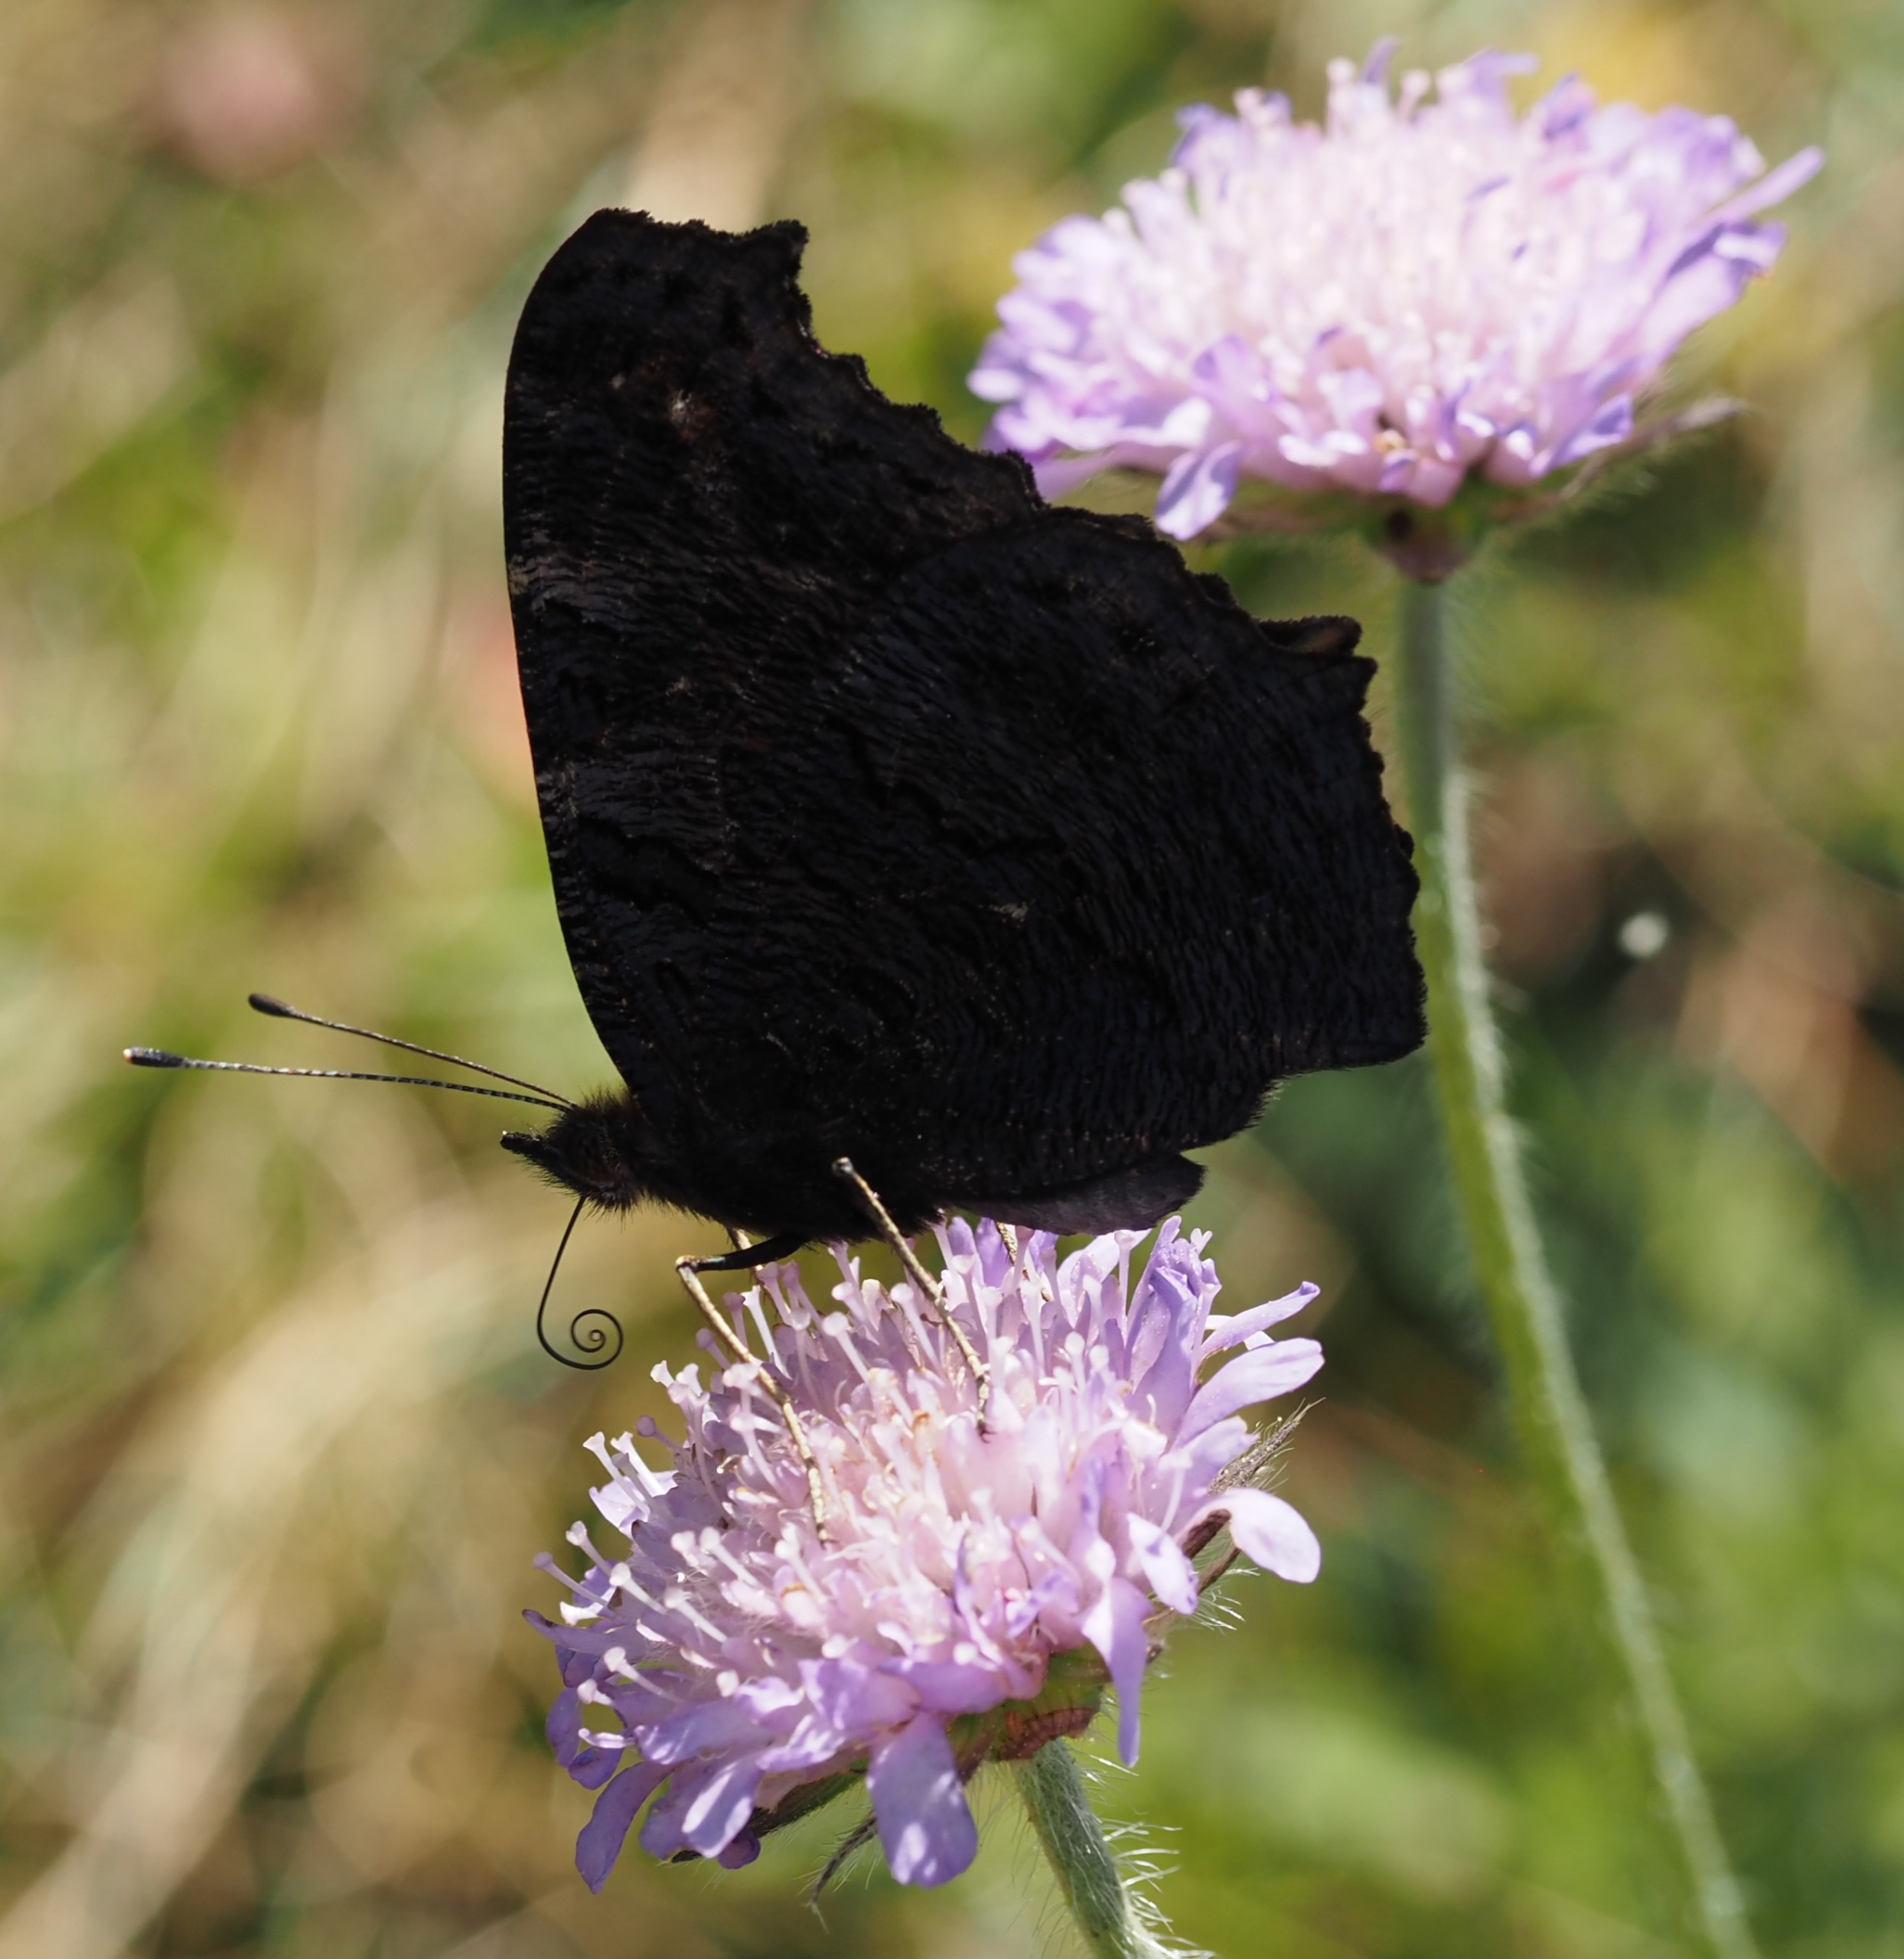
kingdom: Animalia
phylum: Arthropoda
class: Insecta
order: Lepidoptera
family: Nymphalidae
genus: Aglais
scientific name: Aglais io
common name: Dagpåfugleøje
